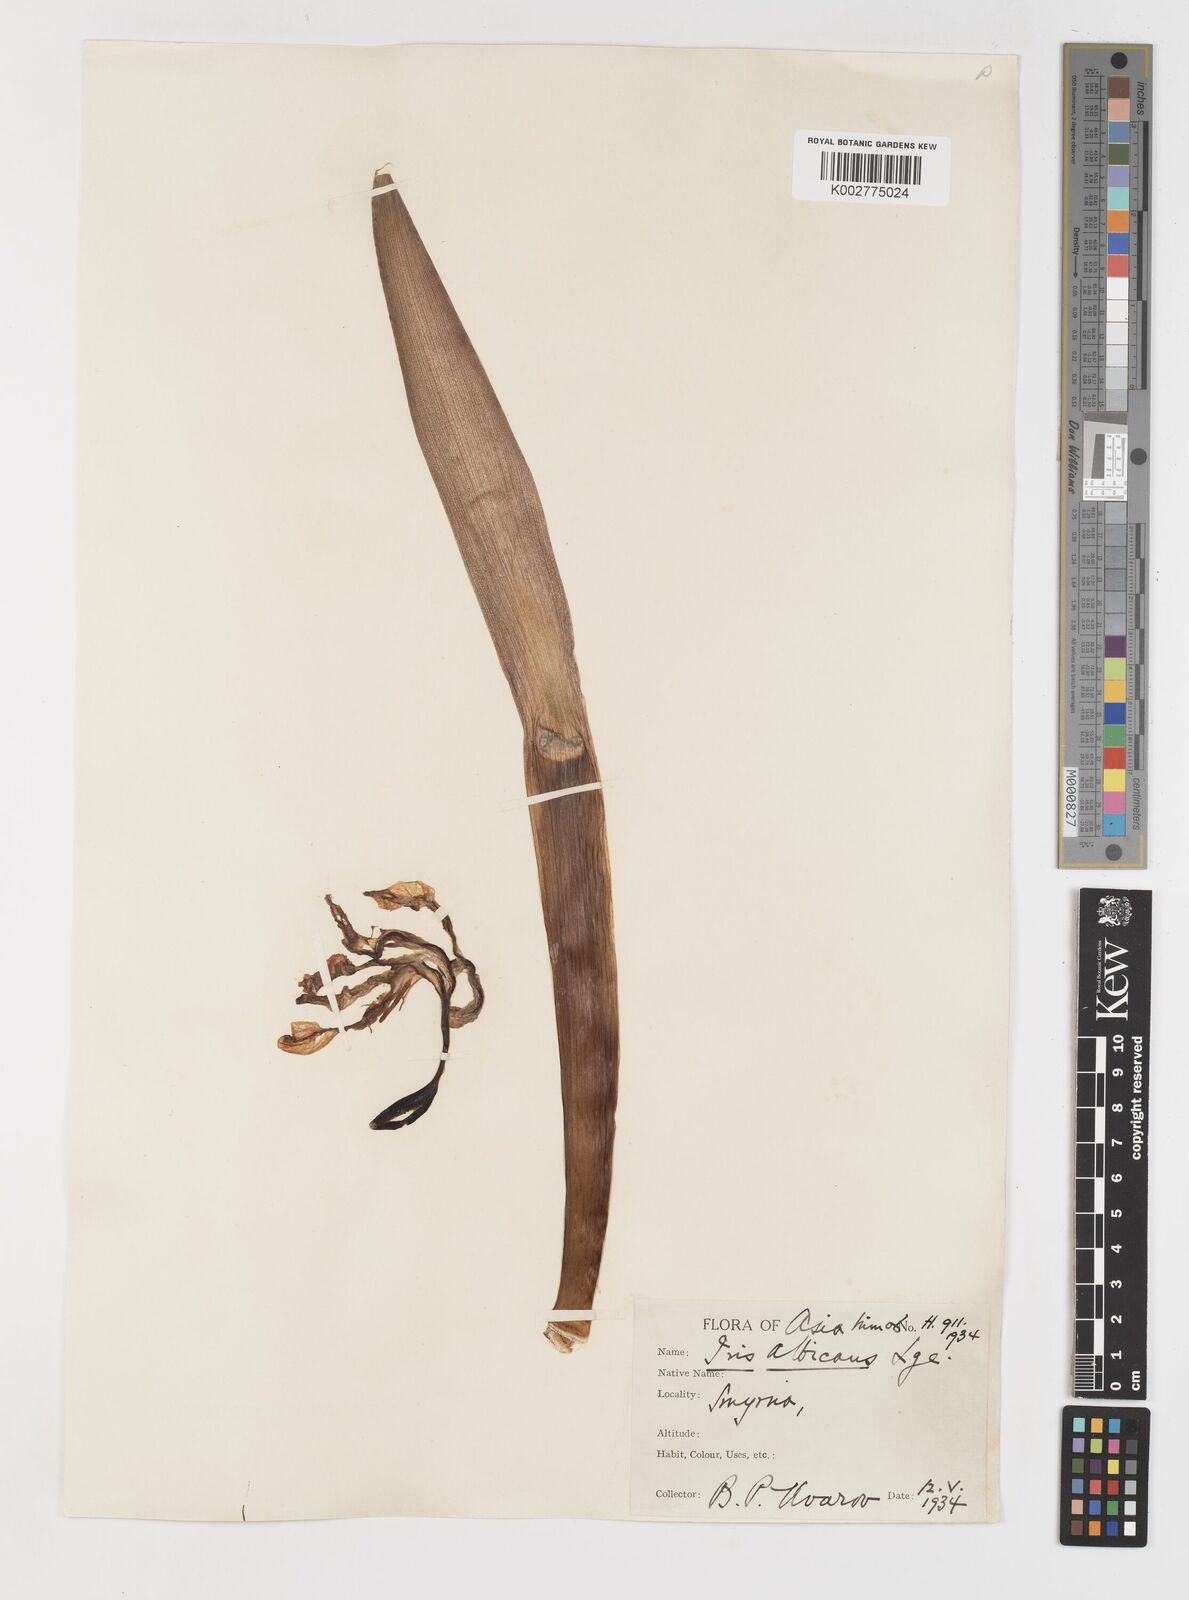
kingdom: Plantae
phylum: Tracheophyta
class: Liliopsida
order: Asparagales
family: Iridaceae
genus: Iris
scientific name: Iris florentina
